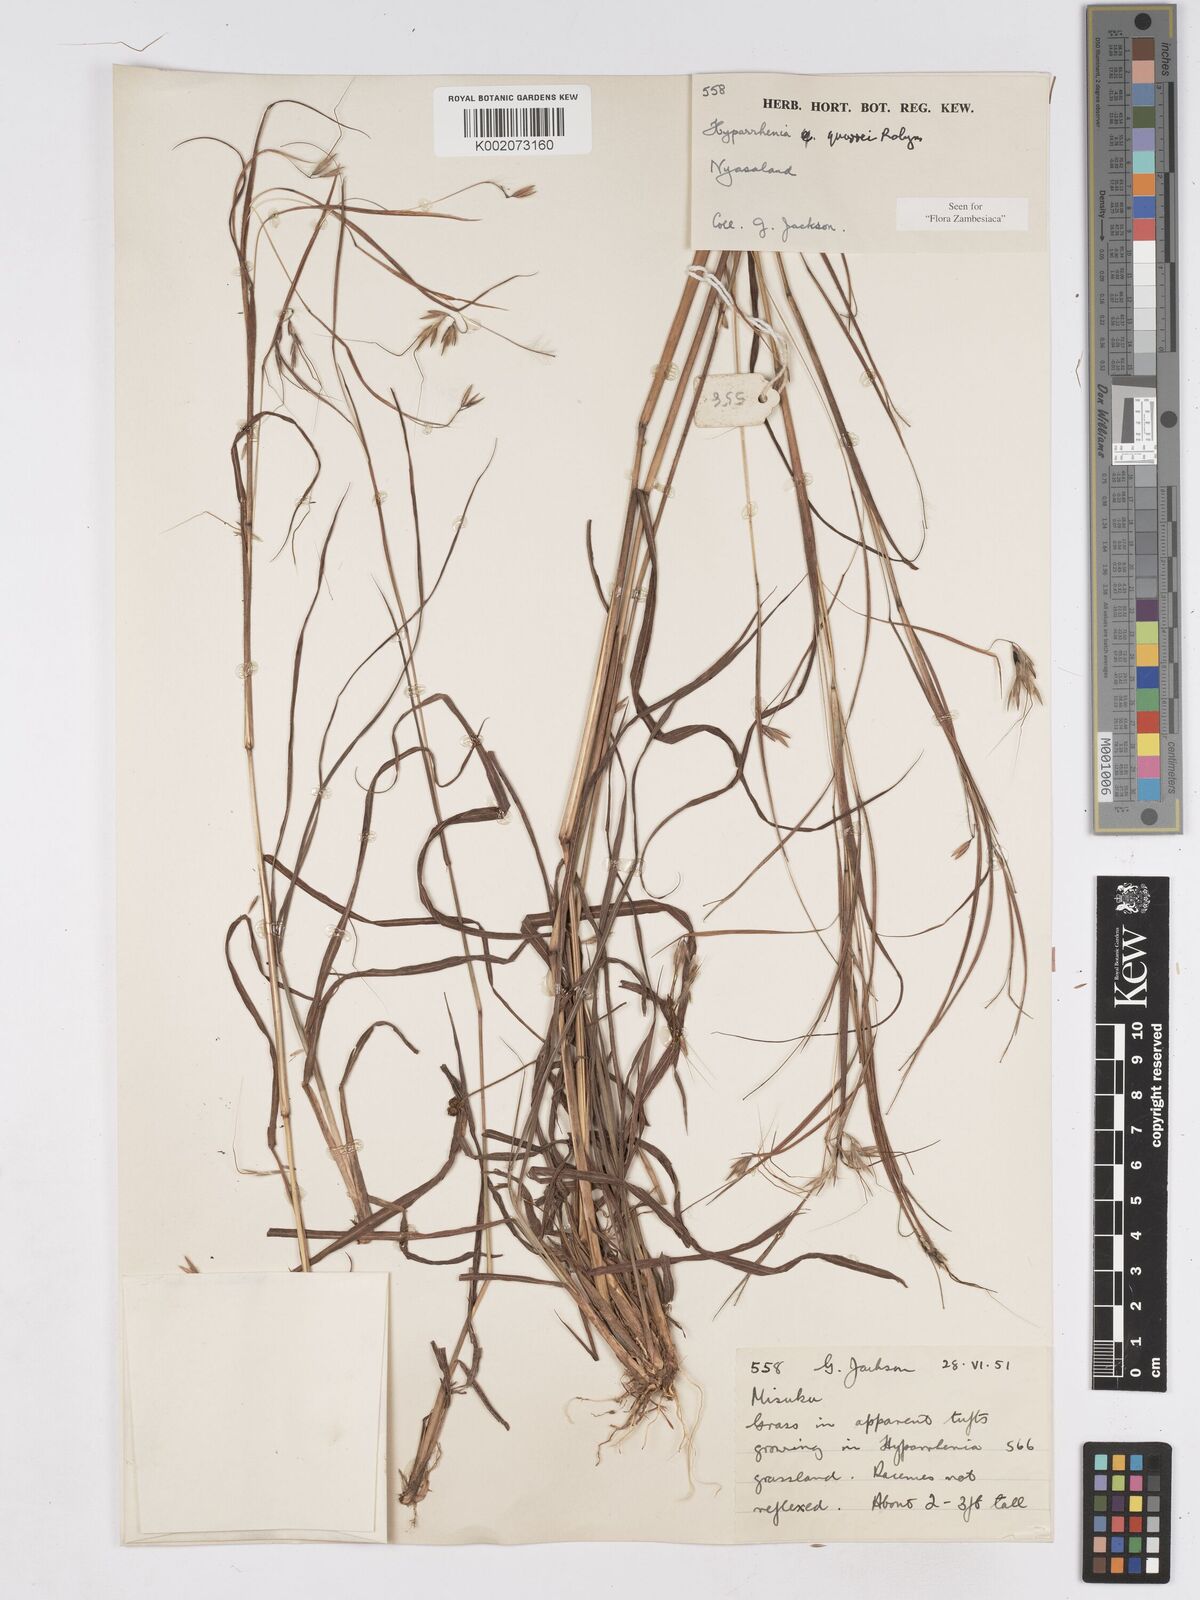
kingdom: Plantae
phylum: Tracheophyta
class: Liliopsida
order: Poales
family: Poaceae
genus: Hyparrhenia
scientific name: Hyparrhenia quarrei
